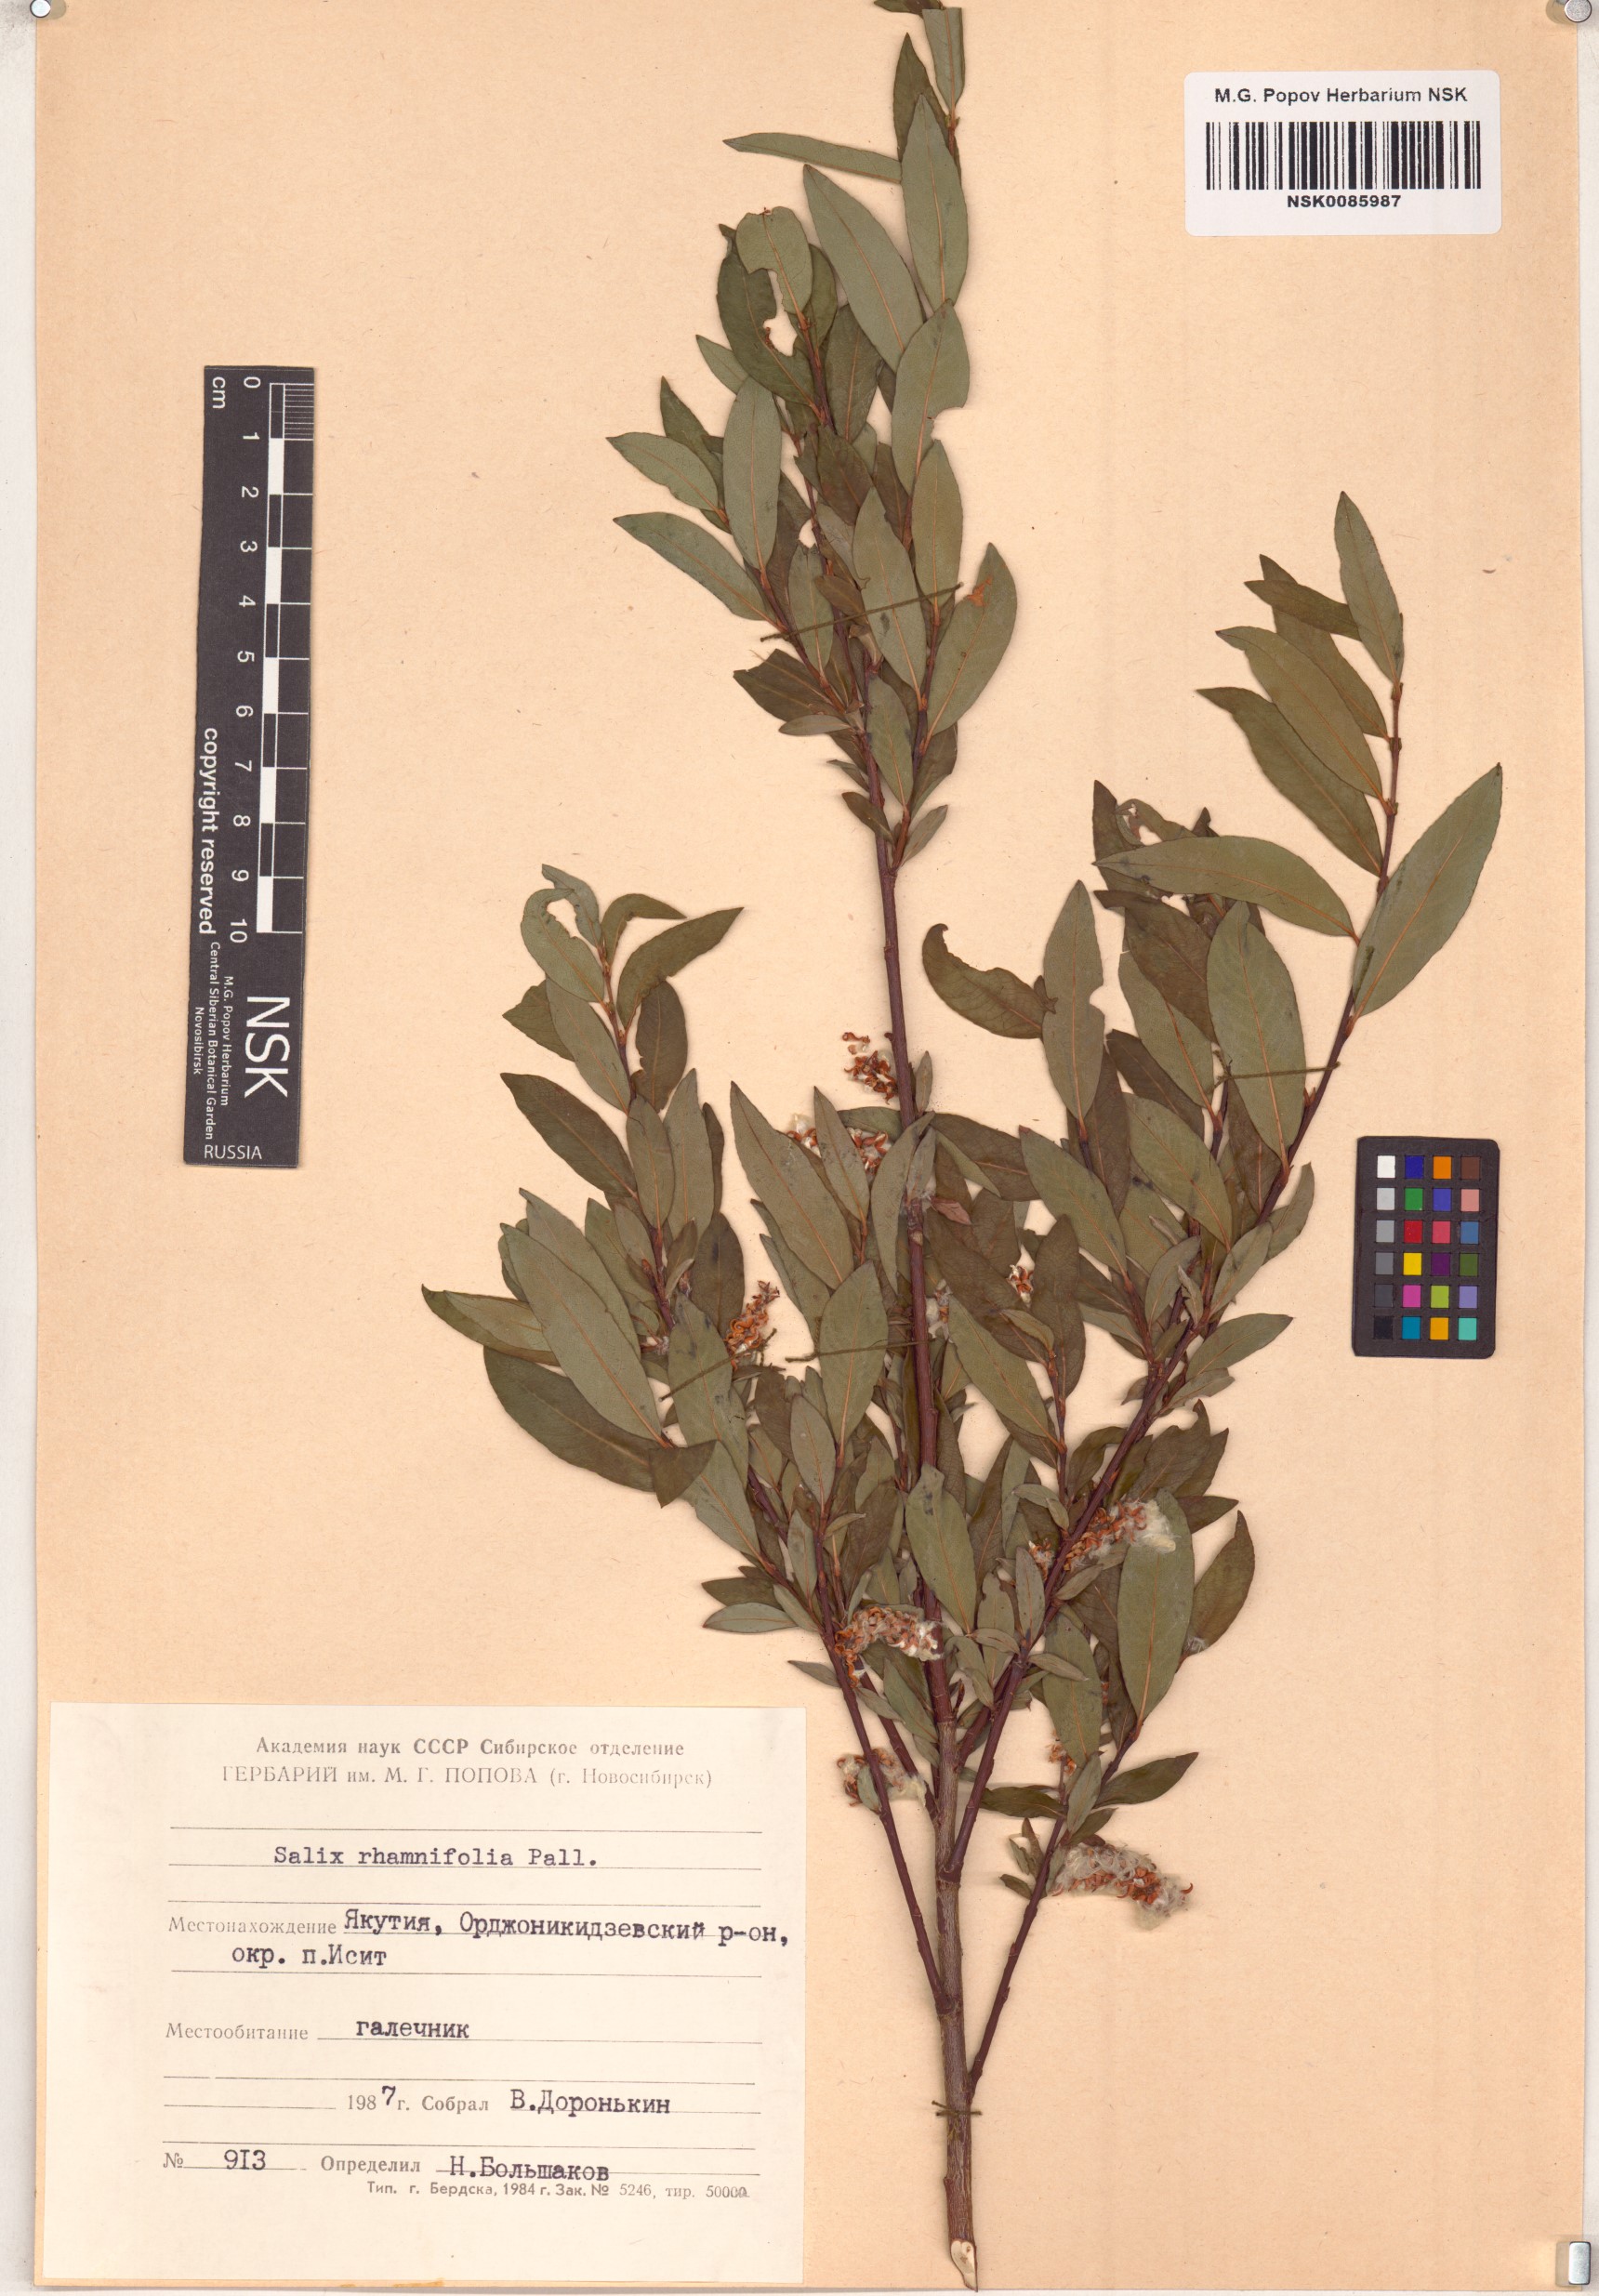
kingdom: Plantae
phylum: Tracheophyta
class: Magnoliopsida
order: Malpighiales
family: Salicaceae
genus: Salix
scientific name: Salix rhamnifolia
